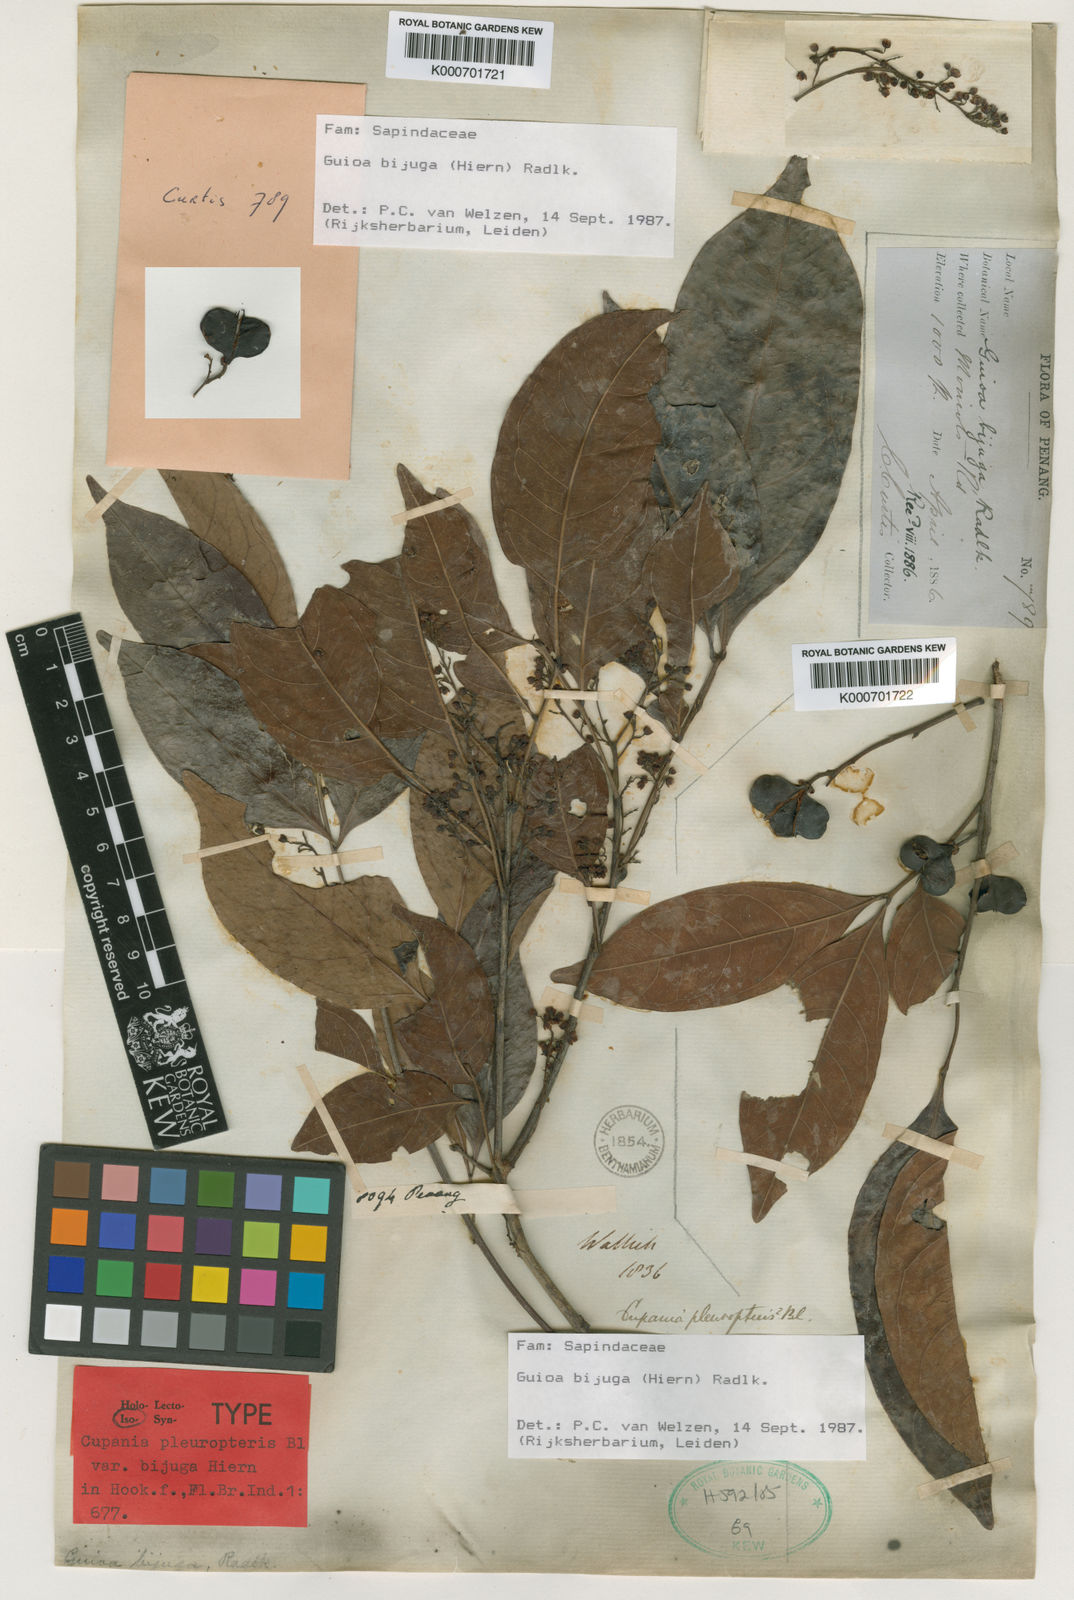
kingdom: Plantae
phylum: Tracheophyta
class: Magnoliopsida
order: Sapindales
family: Sapindaceae
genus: Guioa
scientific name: Guioa bijuga
